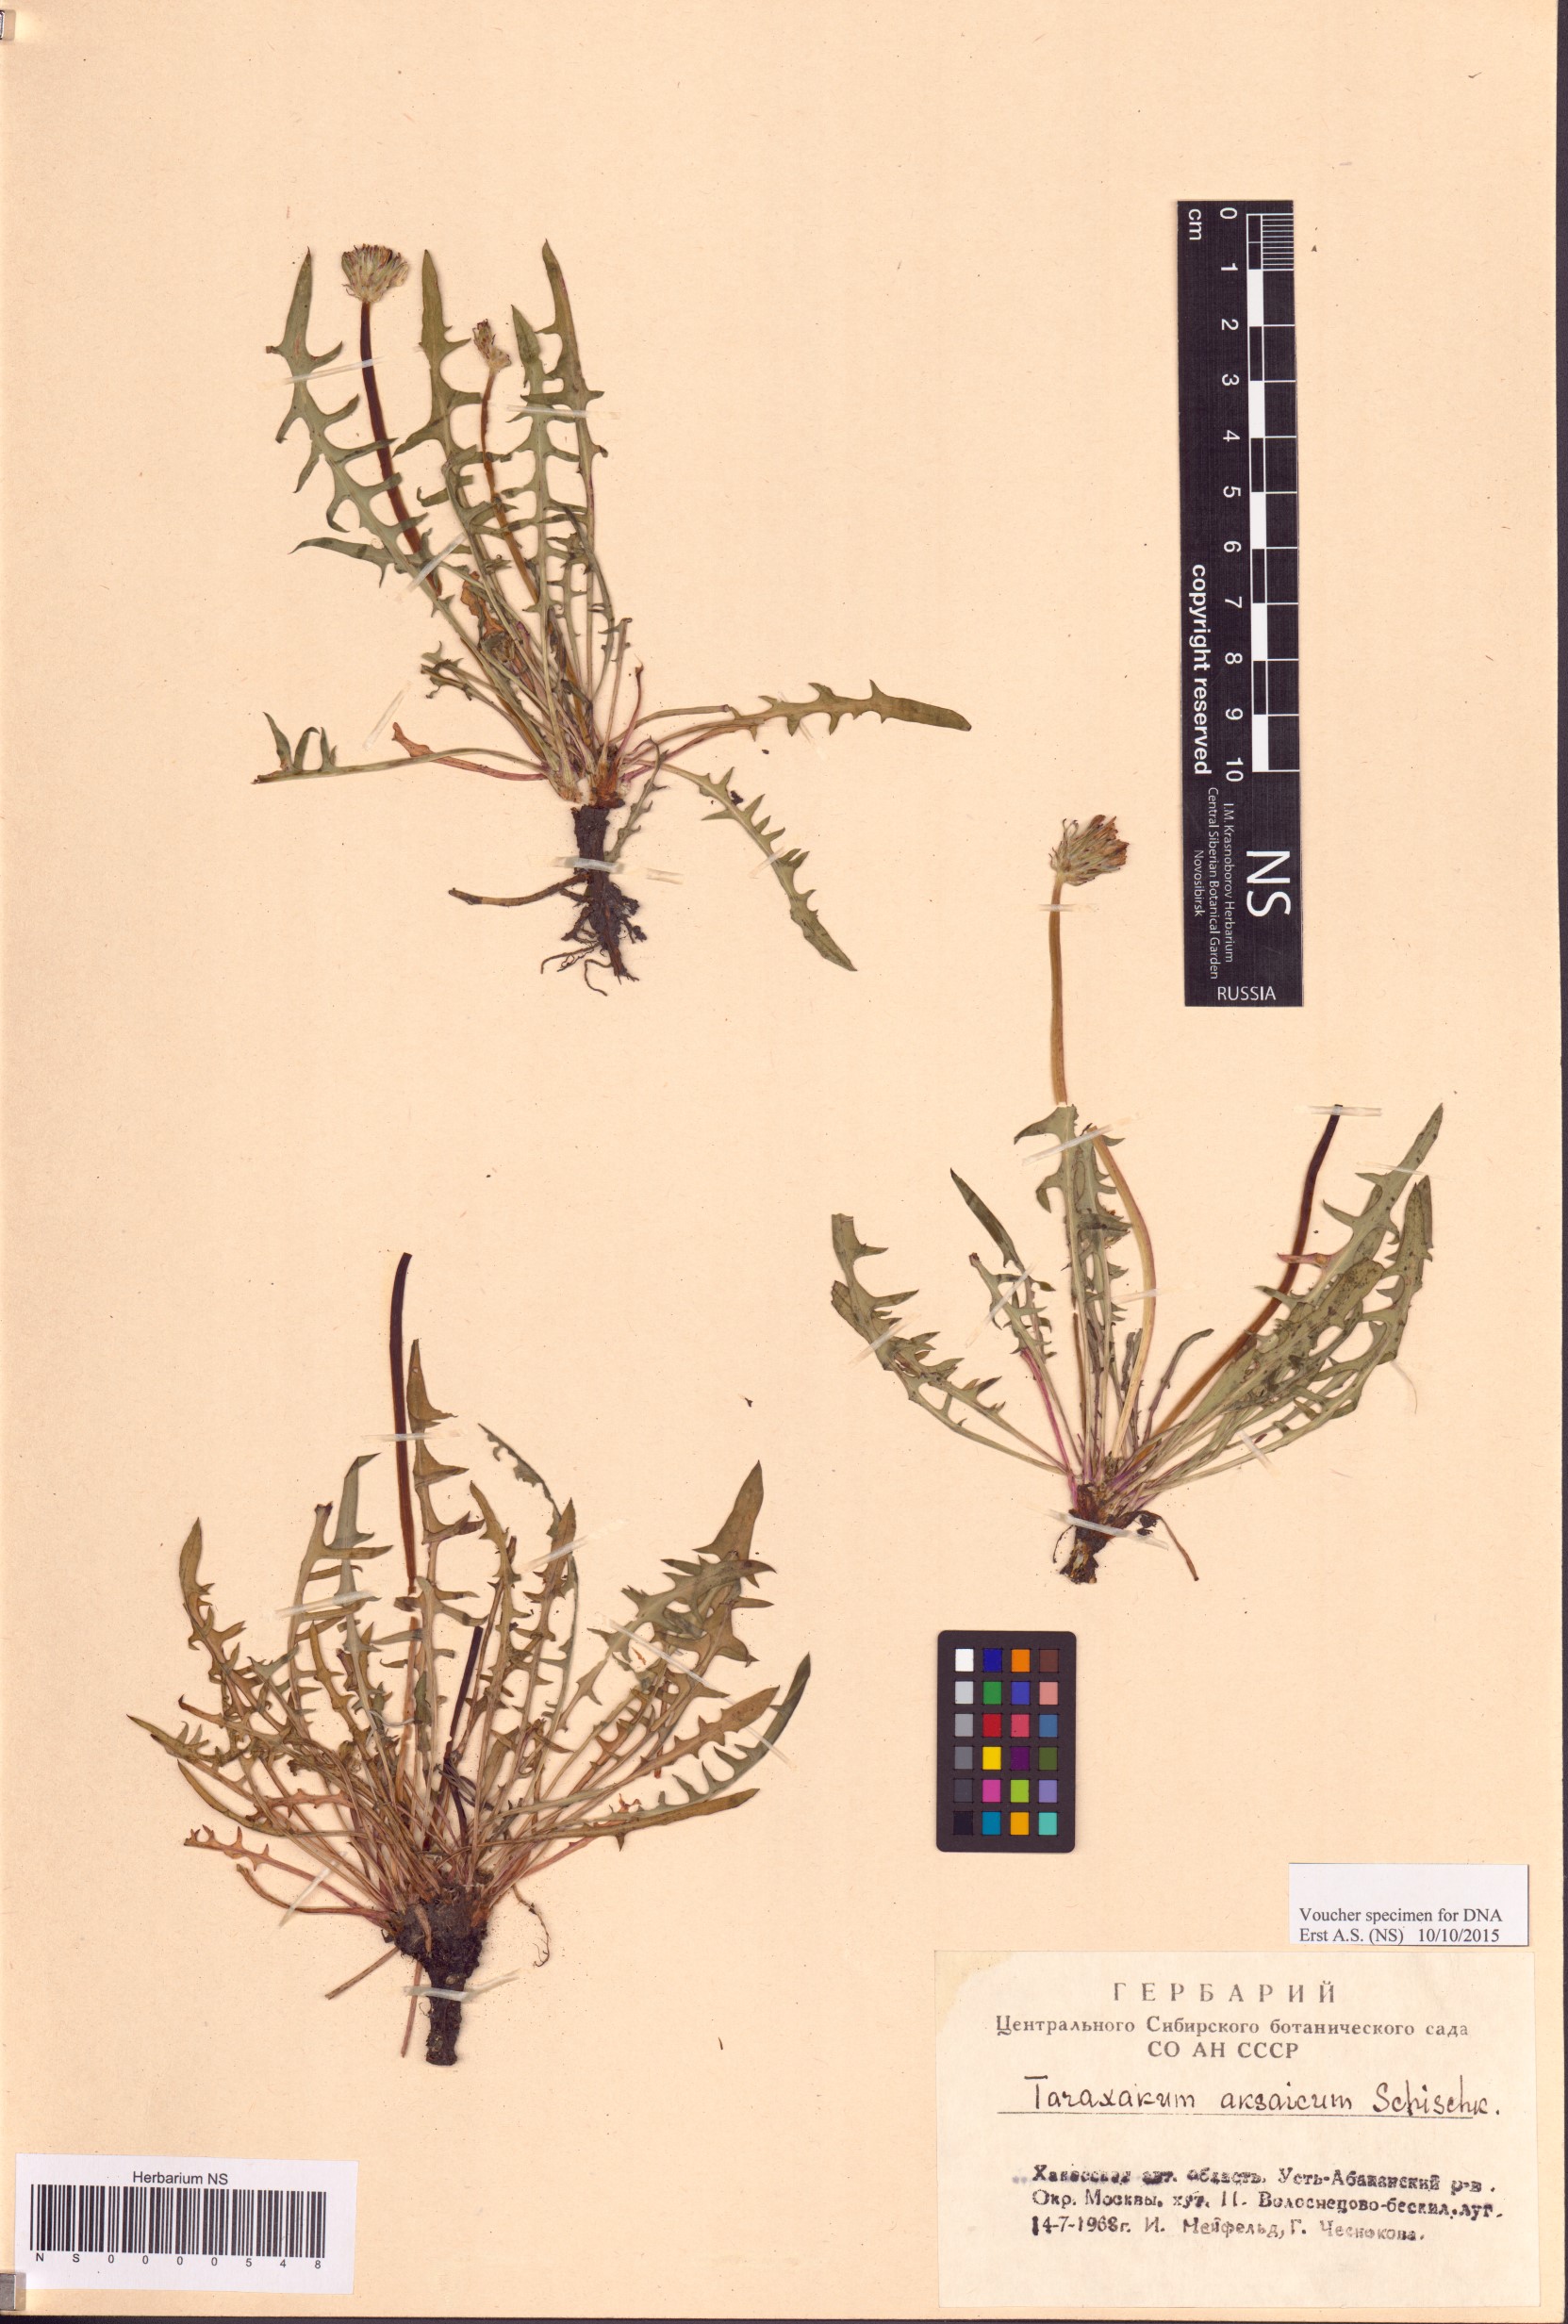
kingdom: Plantae
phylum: Tracheophyta
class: Magnoliopsida
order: Asterales
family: Asteraceae
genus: Taraxacum
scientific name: Taraxacum dealbatum
